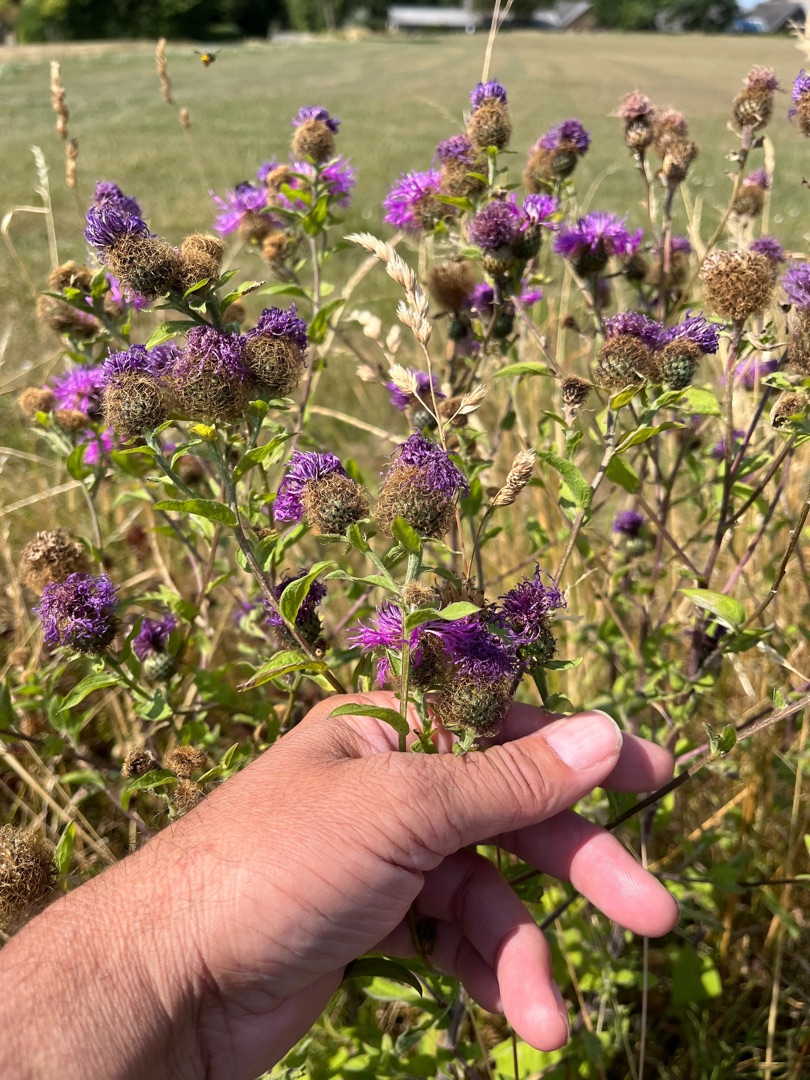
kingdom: Plantae
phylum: Tracheophyta
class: Magnoliopsida
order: Asterales
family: Asteraceae
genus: Centaurea
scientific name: Centaurea pseudophrygia
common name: Fjer-knopurt
